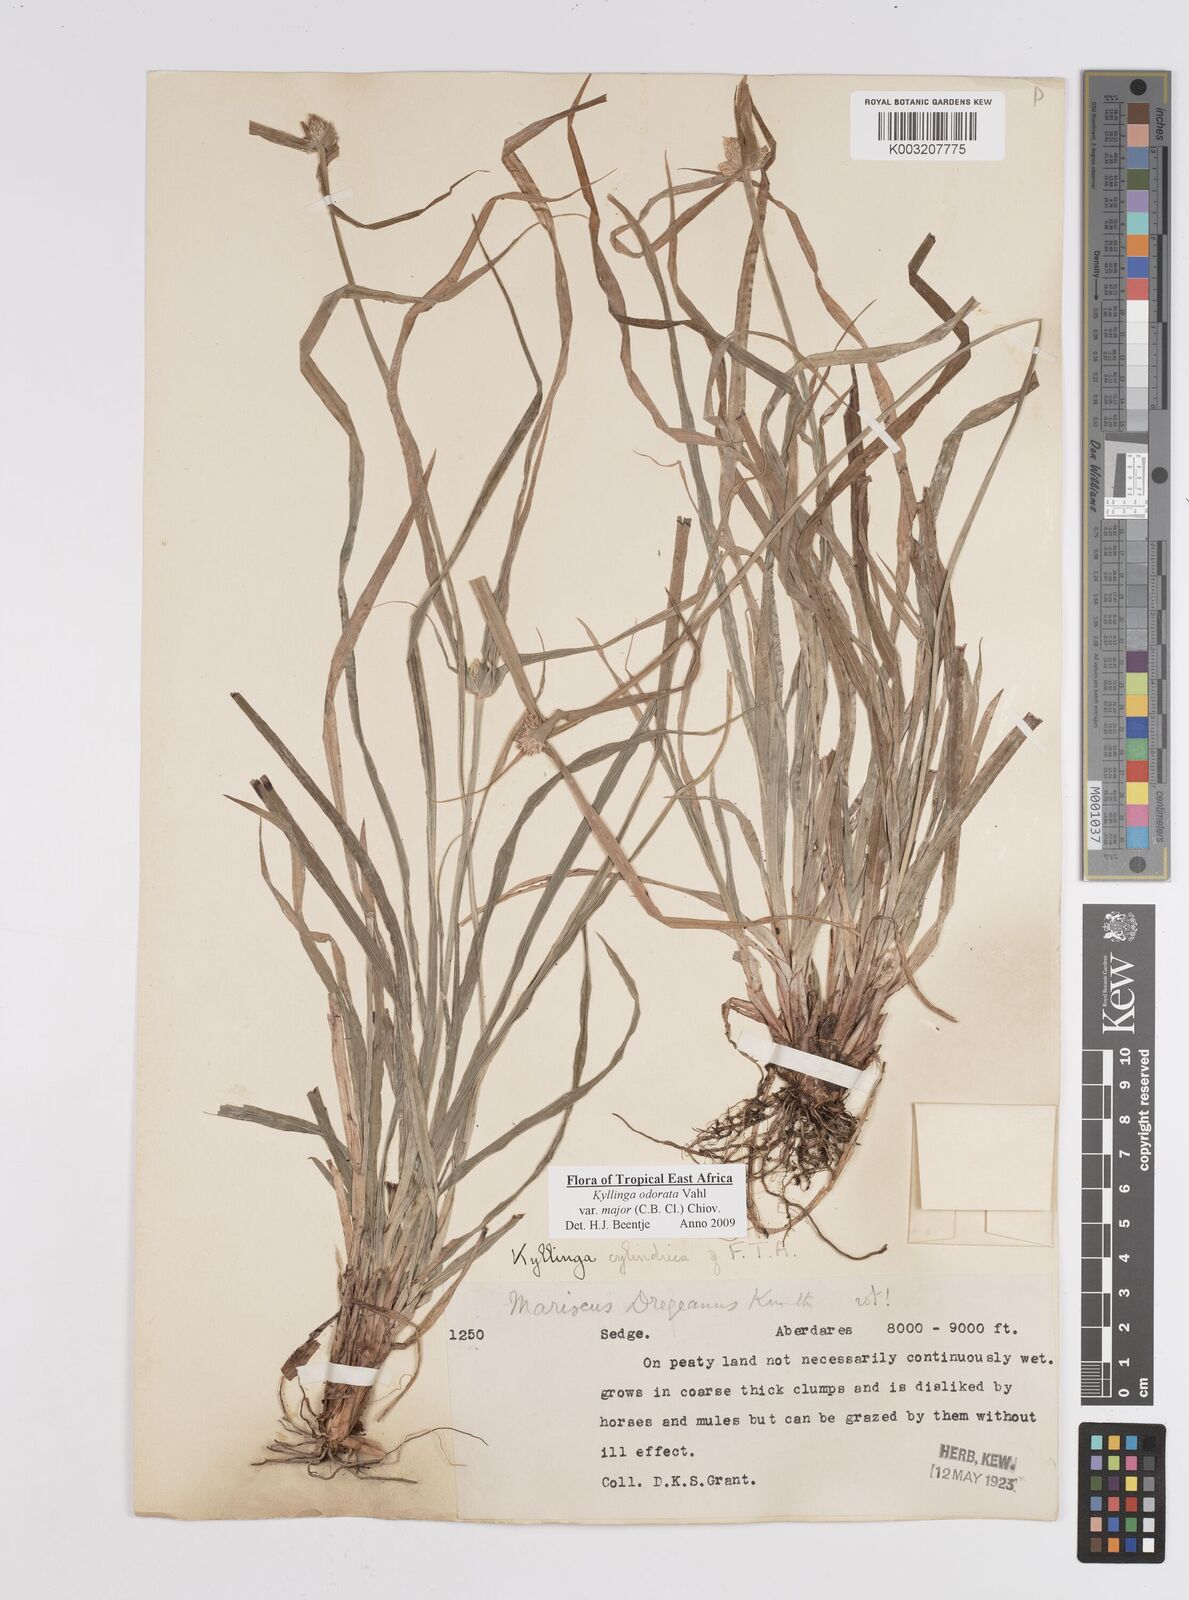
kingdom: Plantae
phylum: Tracheophyta
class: Liliopsida
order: Poales
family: Cyperaceae
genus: Cyperus
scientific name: Cyperus
